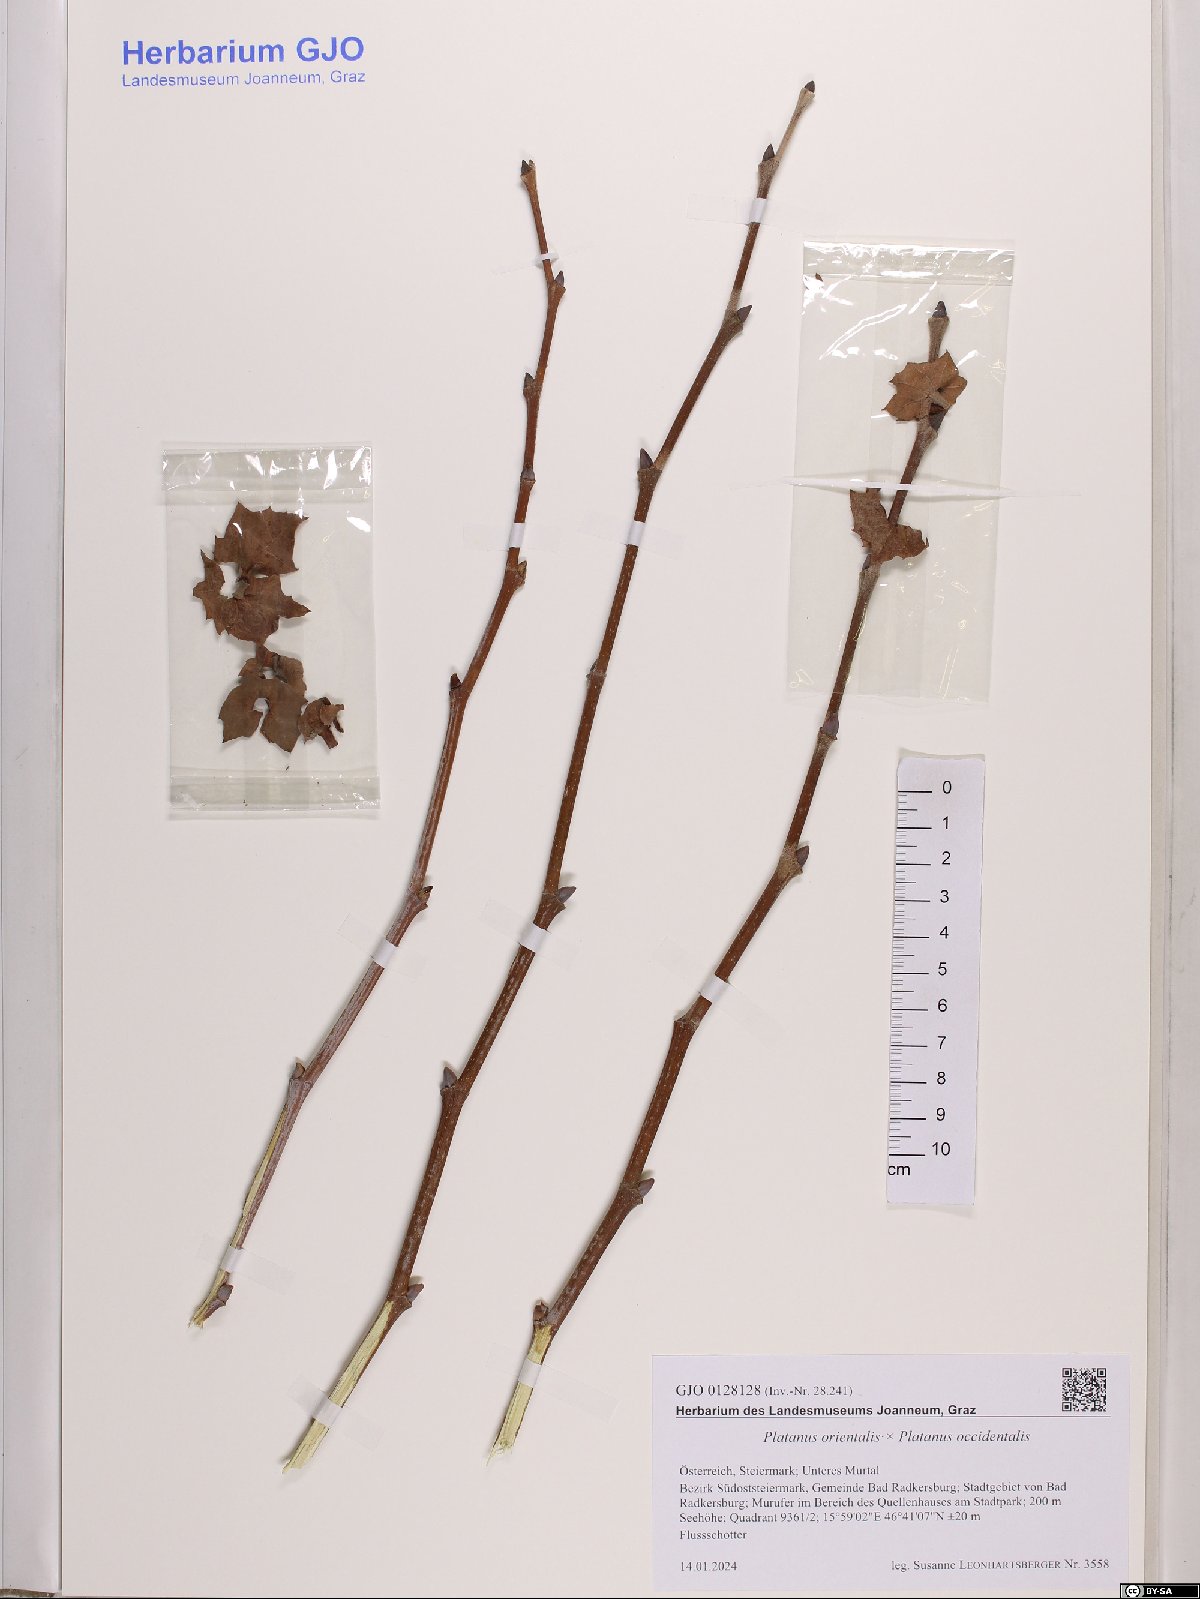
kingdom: Plantae
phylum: Tracheophyta
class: Magnoliopsida
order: Proteales
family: Platanaceae
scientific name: Platanaceae
